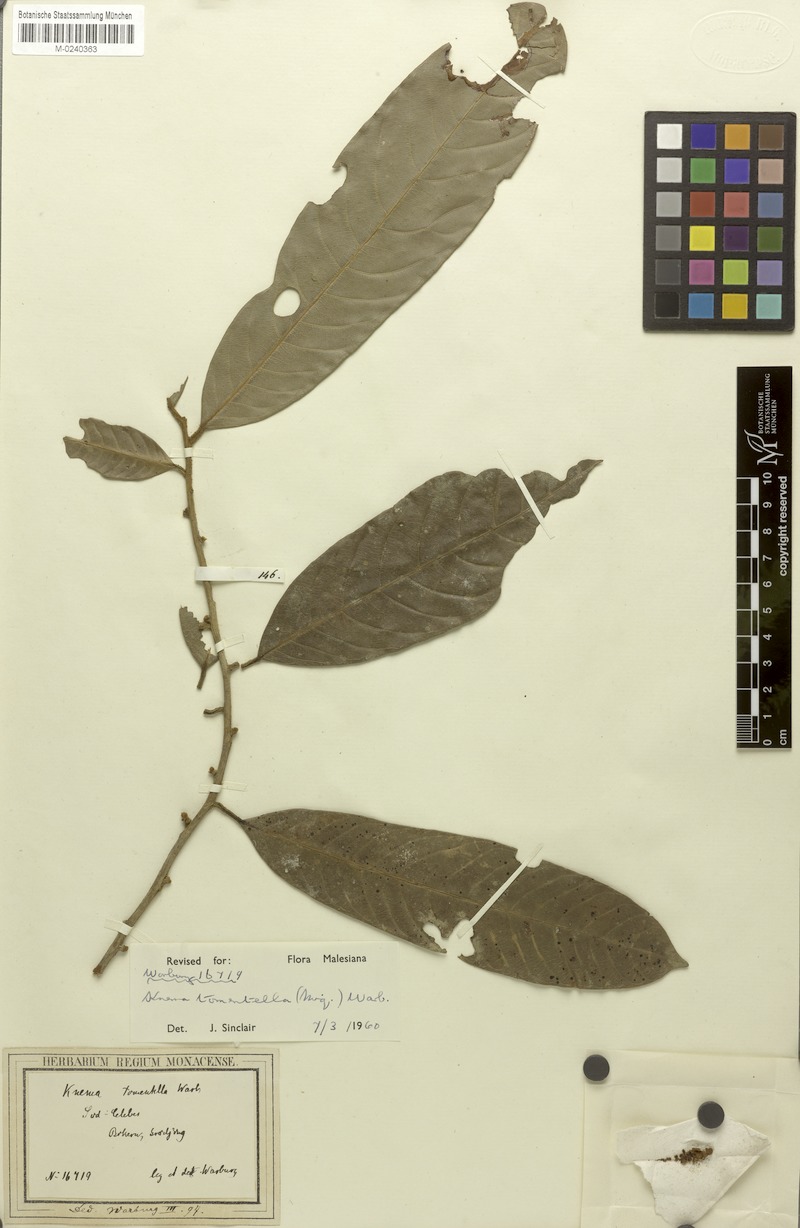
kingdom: Plantae
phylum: Tracheophyta
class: Magnoliopsida
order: Magnoliales
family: Myristicaceae
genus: Knema
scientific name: Knema tomentella
